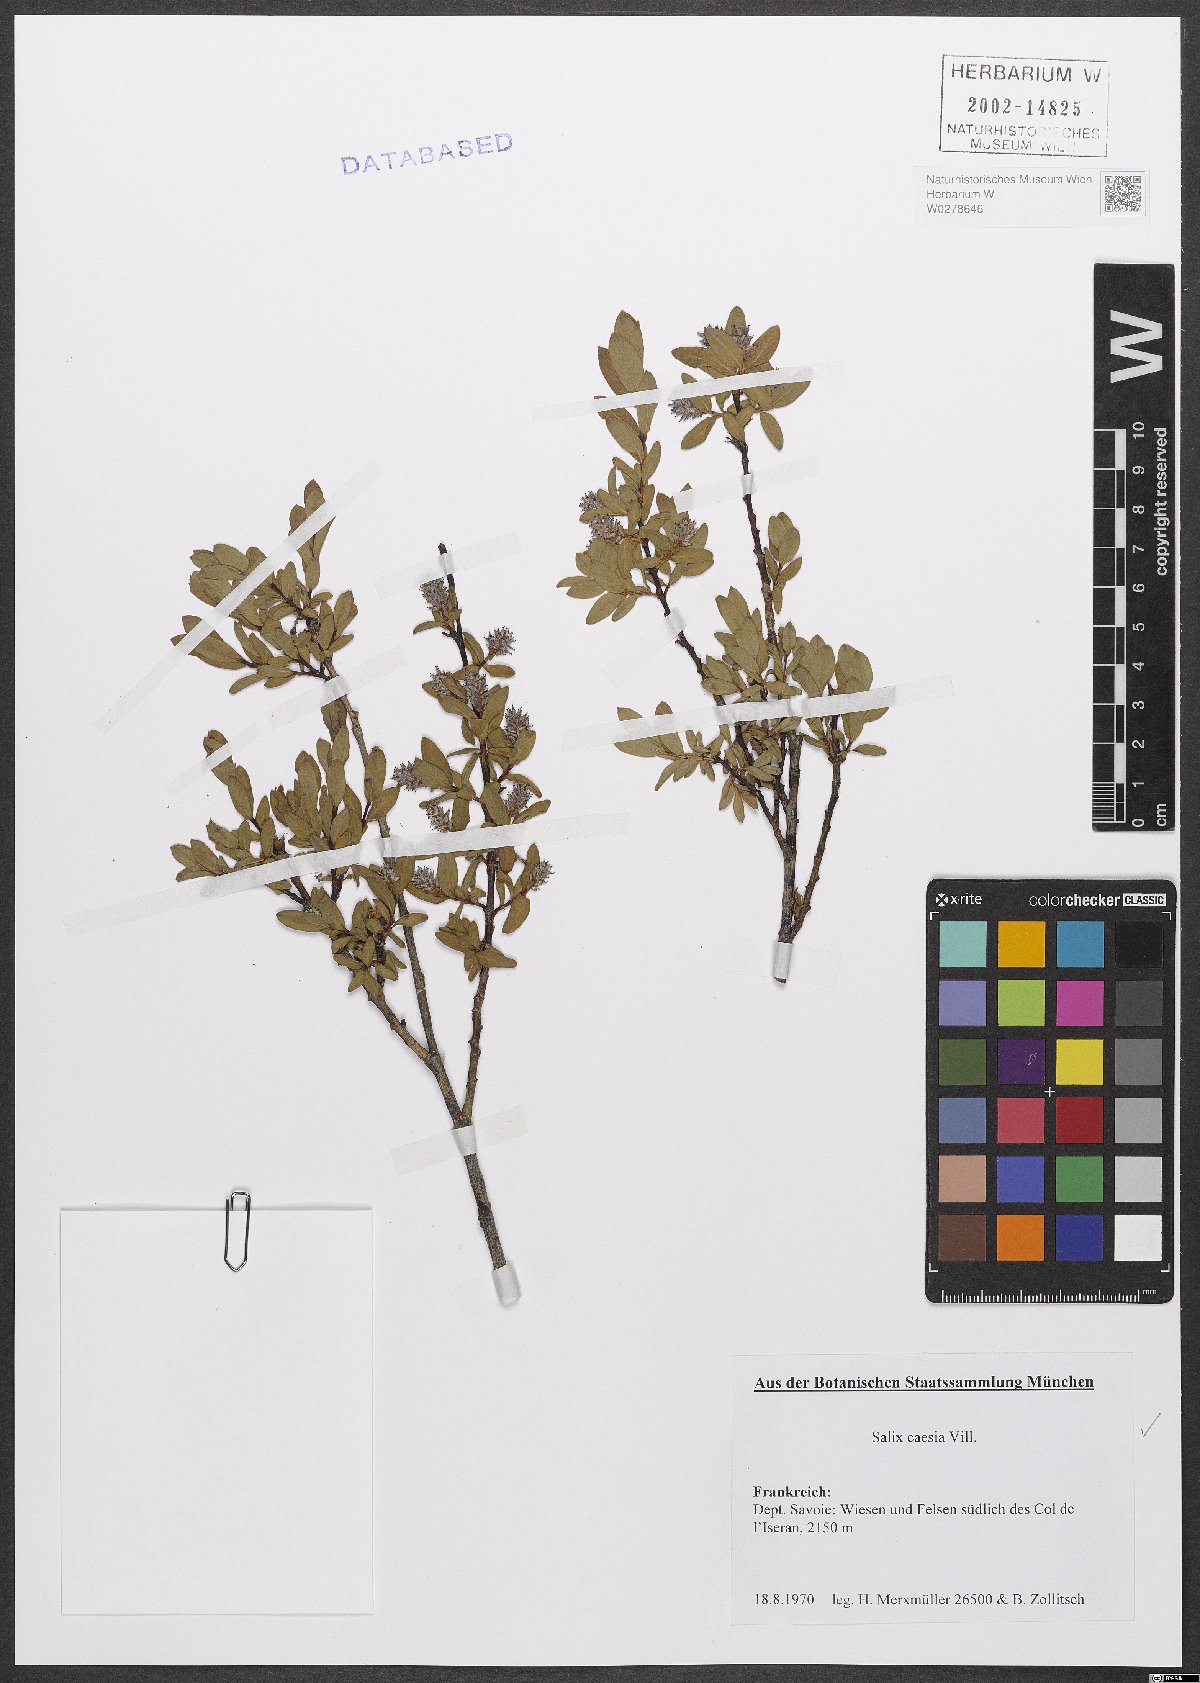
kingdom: Plantae
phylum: Tracheophyta
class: Magnoliopsida
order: Malpighiales
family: Salicaceae
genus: Salix
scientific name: Salix caesia
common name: Blue willow
